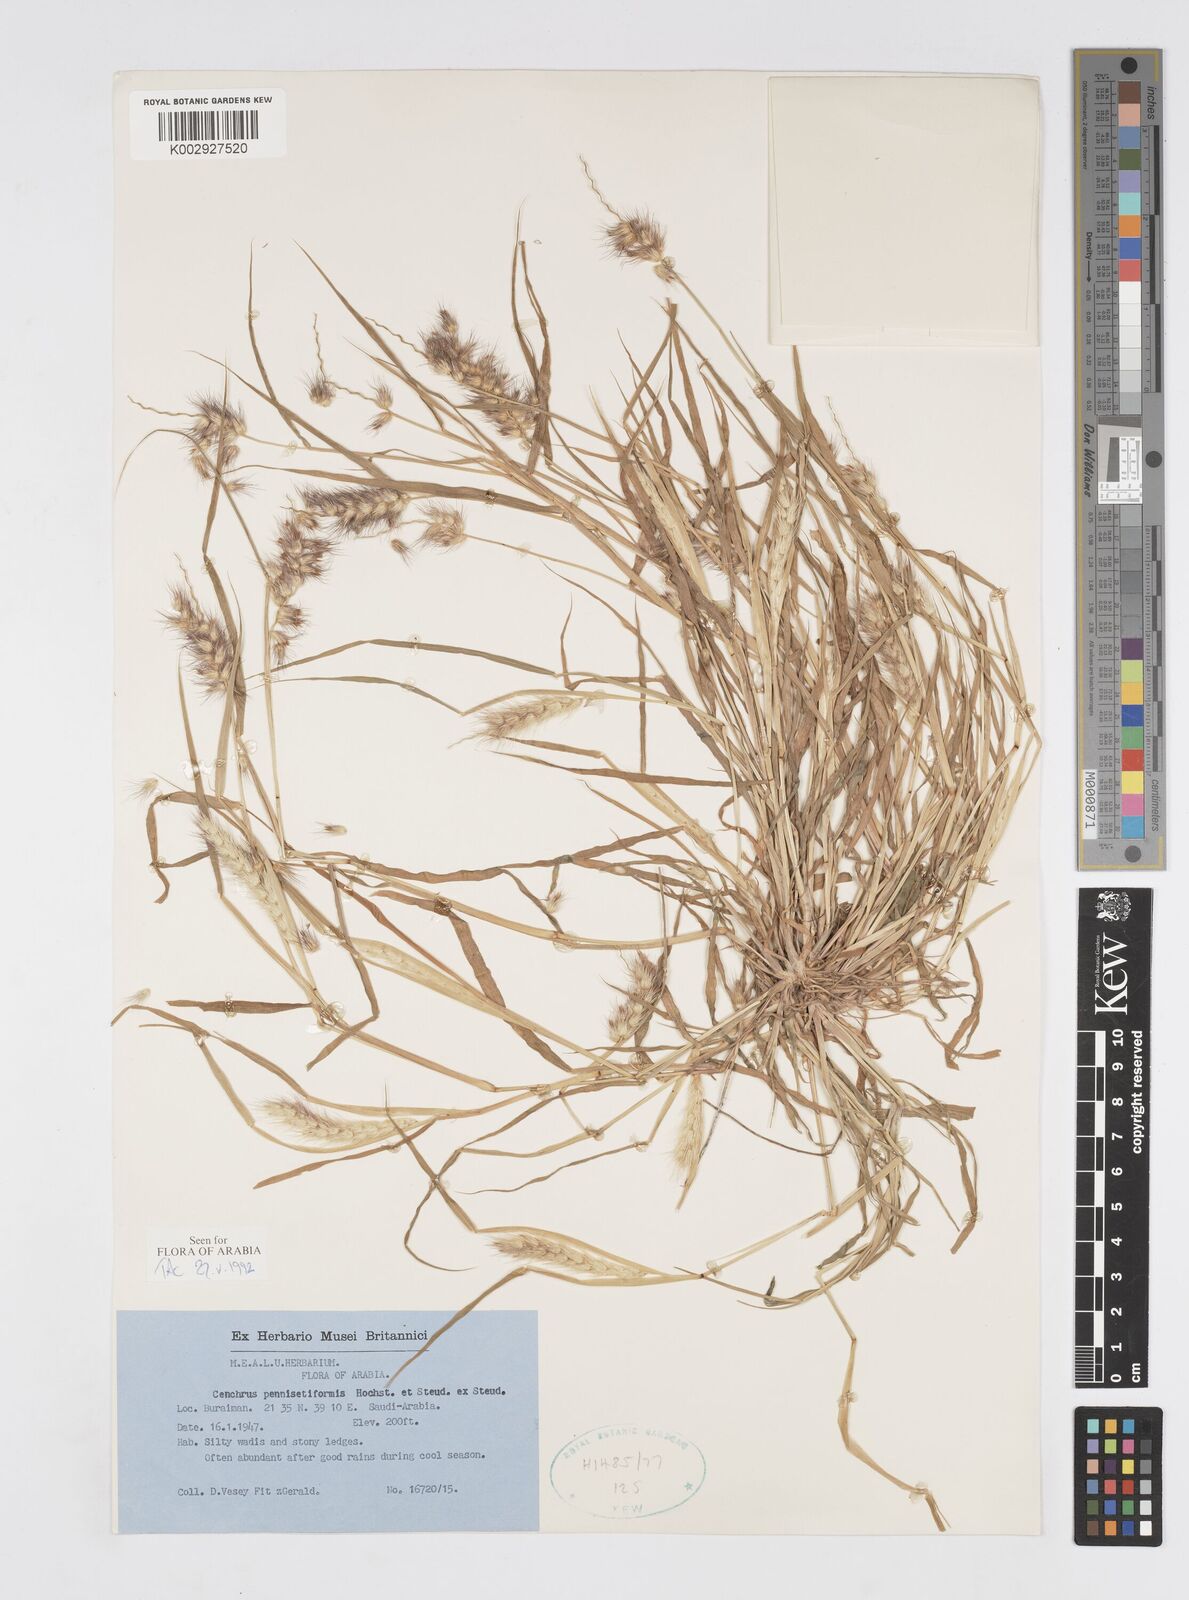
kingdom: Plantae
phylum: Tracheophyta
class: Liliopsida
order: Poales
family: Poaceae
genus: Cenchrus
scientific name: Cenchrus pennisetiformis
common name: Cloncurry
